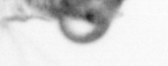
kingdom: Animalia
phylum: Arthropoda
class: Copepoda
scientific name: Copepoda
